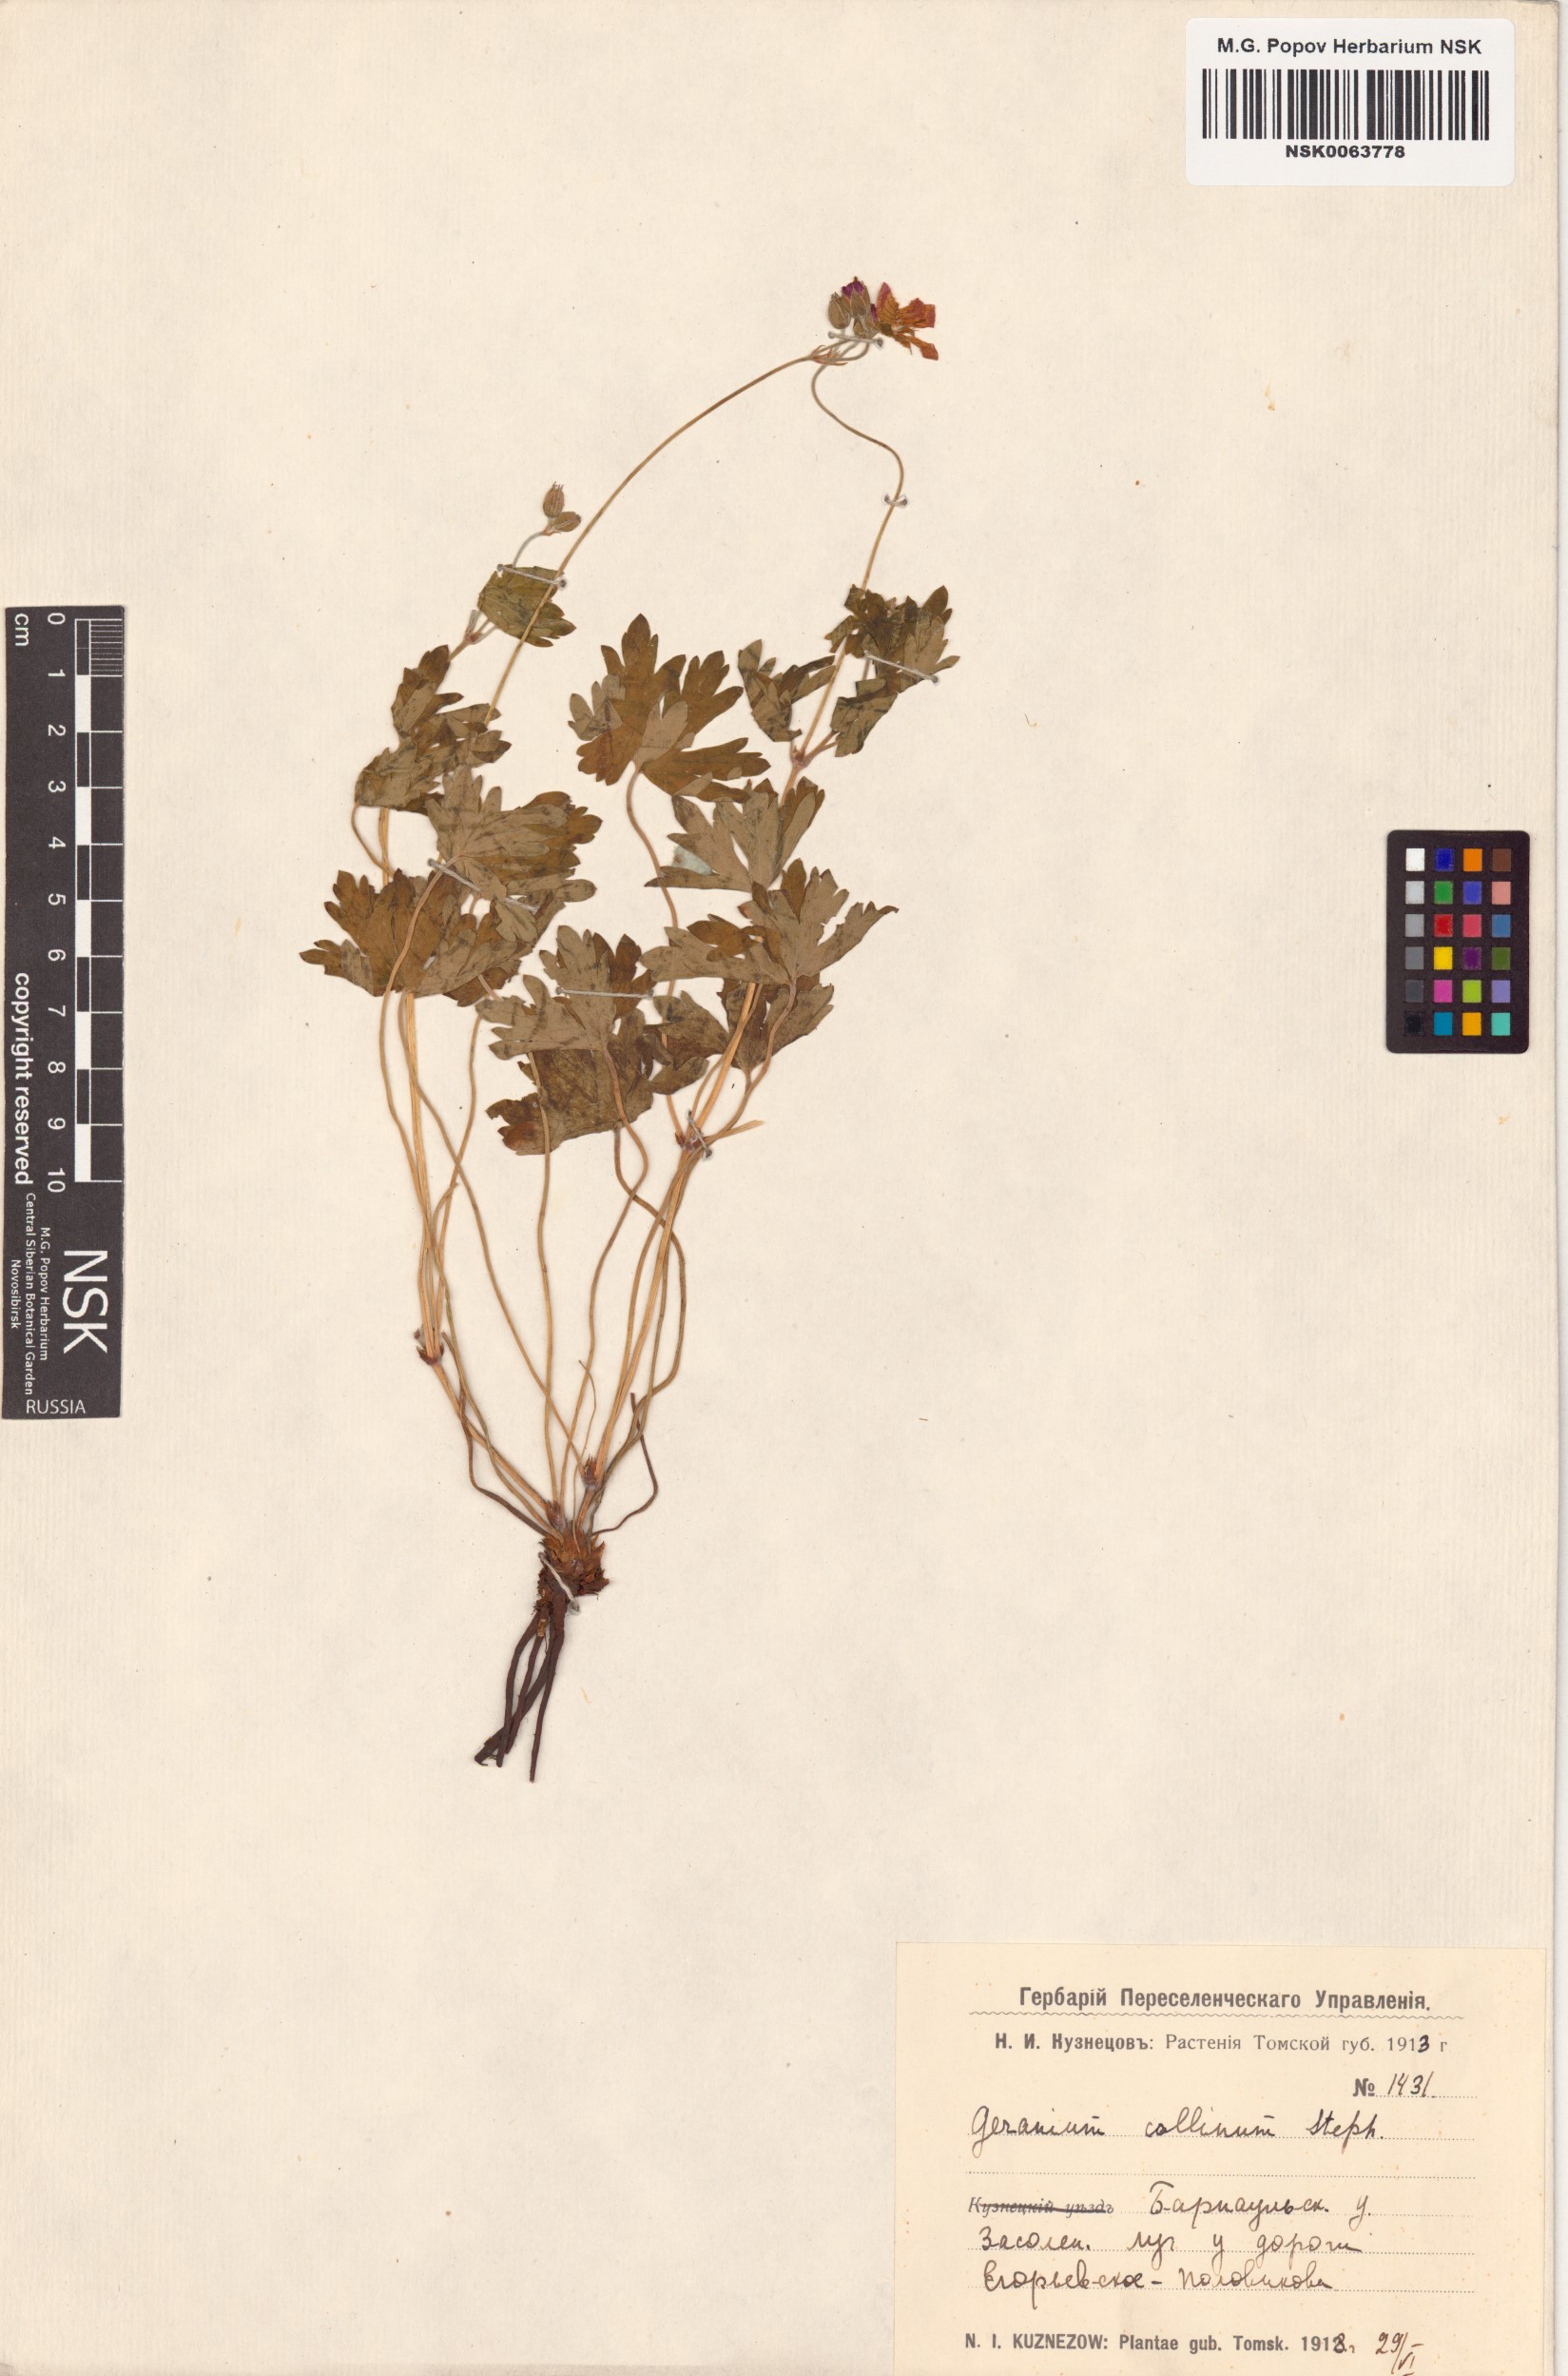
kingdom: Plantae
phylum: Tracheophyta
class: Magnoliopsida
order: Geraniales
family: Geraniaceae
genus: Geranium
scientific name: Geranium collinum
